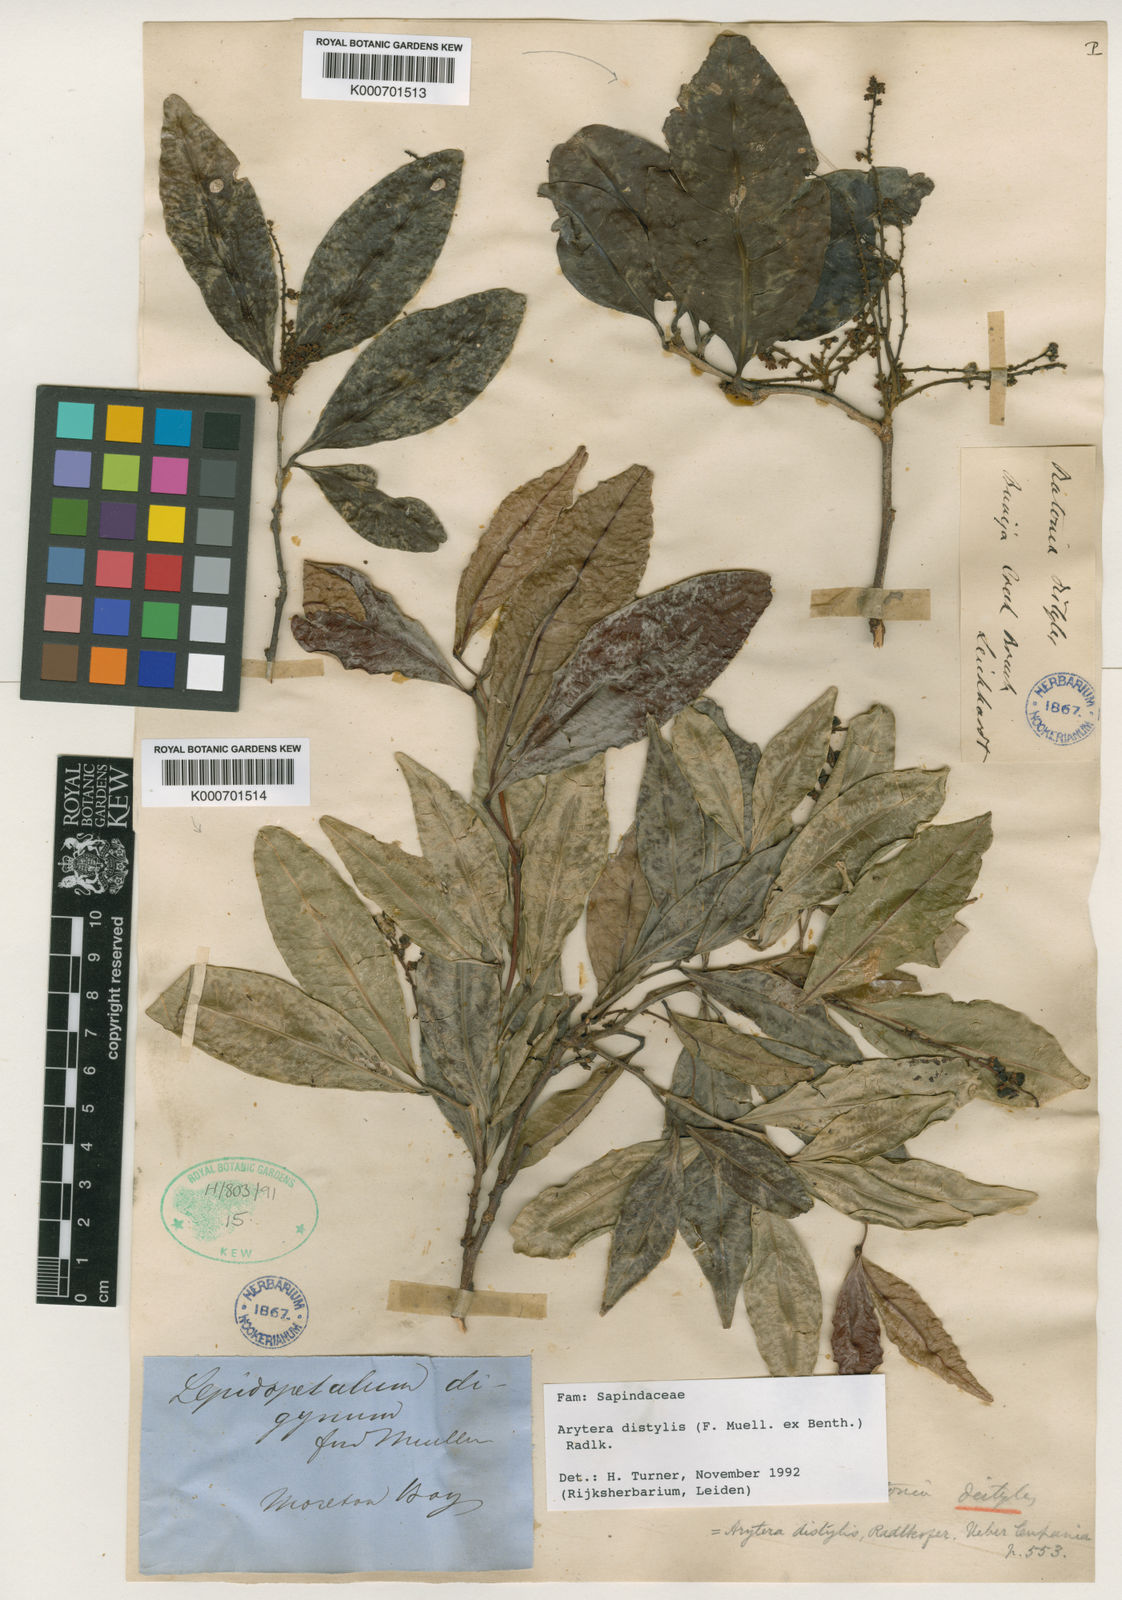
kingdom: Plantae
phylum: Tracheophyta
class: Magnoliopsida
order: Sapindales
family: Sapindaceae
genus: Arytera
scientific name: Arytera distylis
